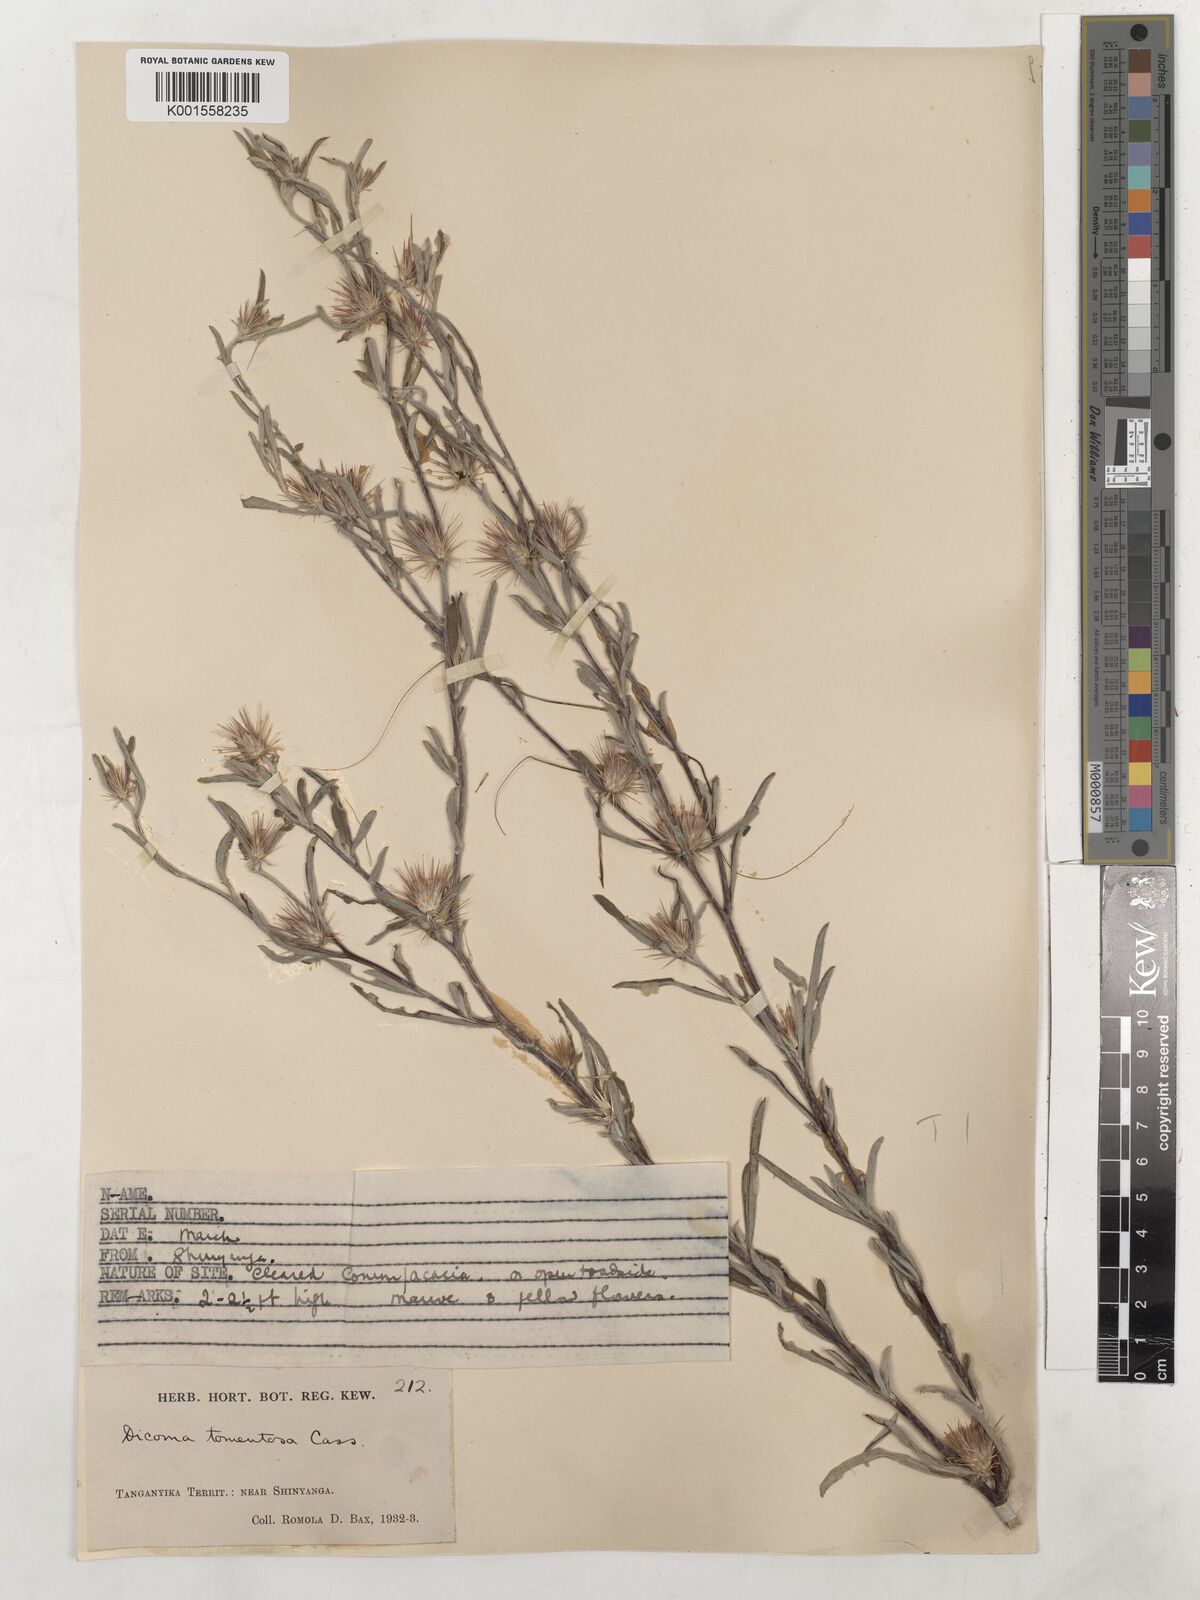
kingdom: Plantae
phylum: Tracheophyta
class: Magnoliopsida
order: Asterales
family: Asteraceae
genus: Dicoma
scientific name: Dicoma tomentosa
